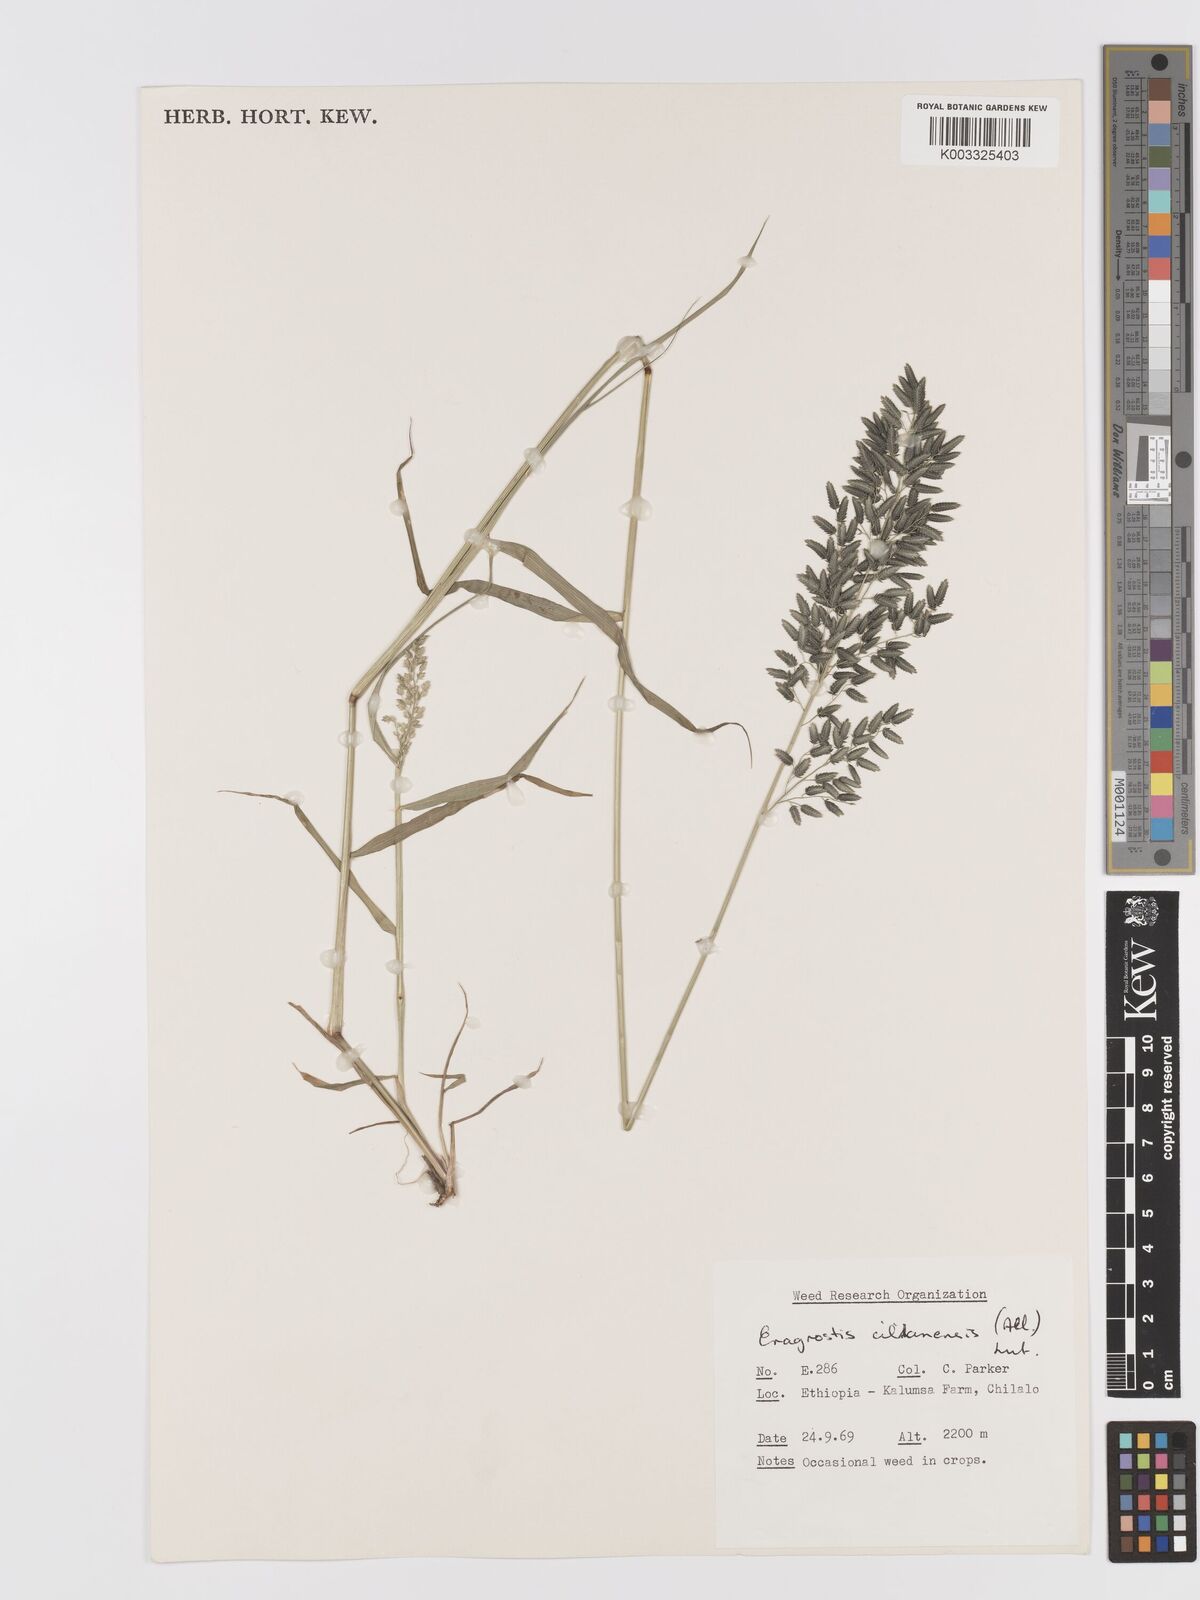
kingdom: Plantae
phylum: Tracheophyta
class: Liliopsida
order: Poales
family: Poaceae
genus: Eragrostis
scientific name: Eragrostis cilianensis
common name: Stinkgrass
